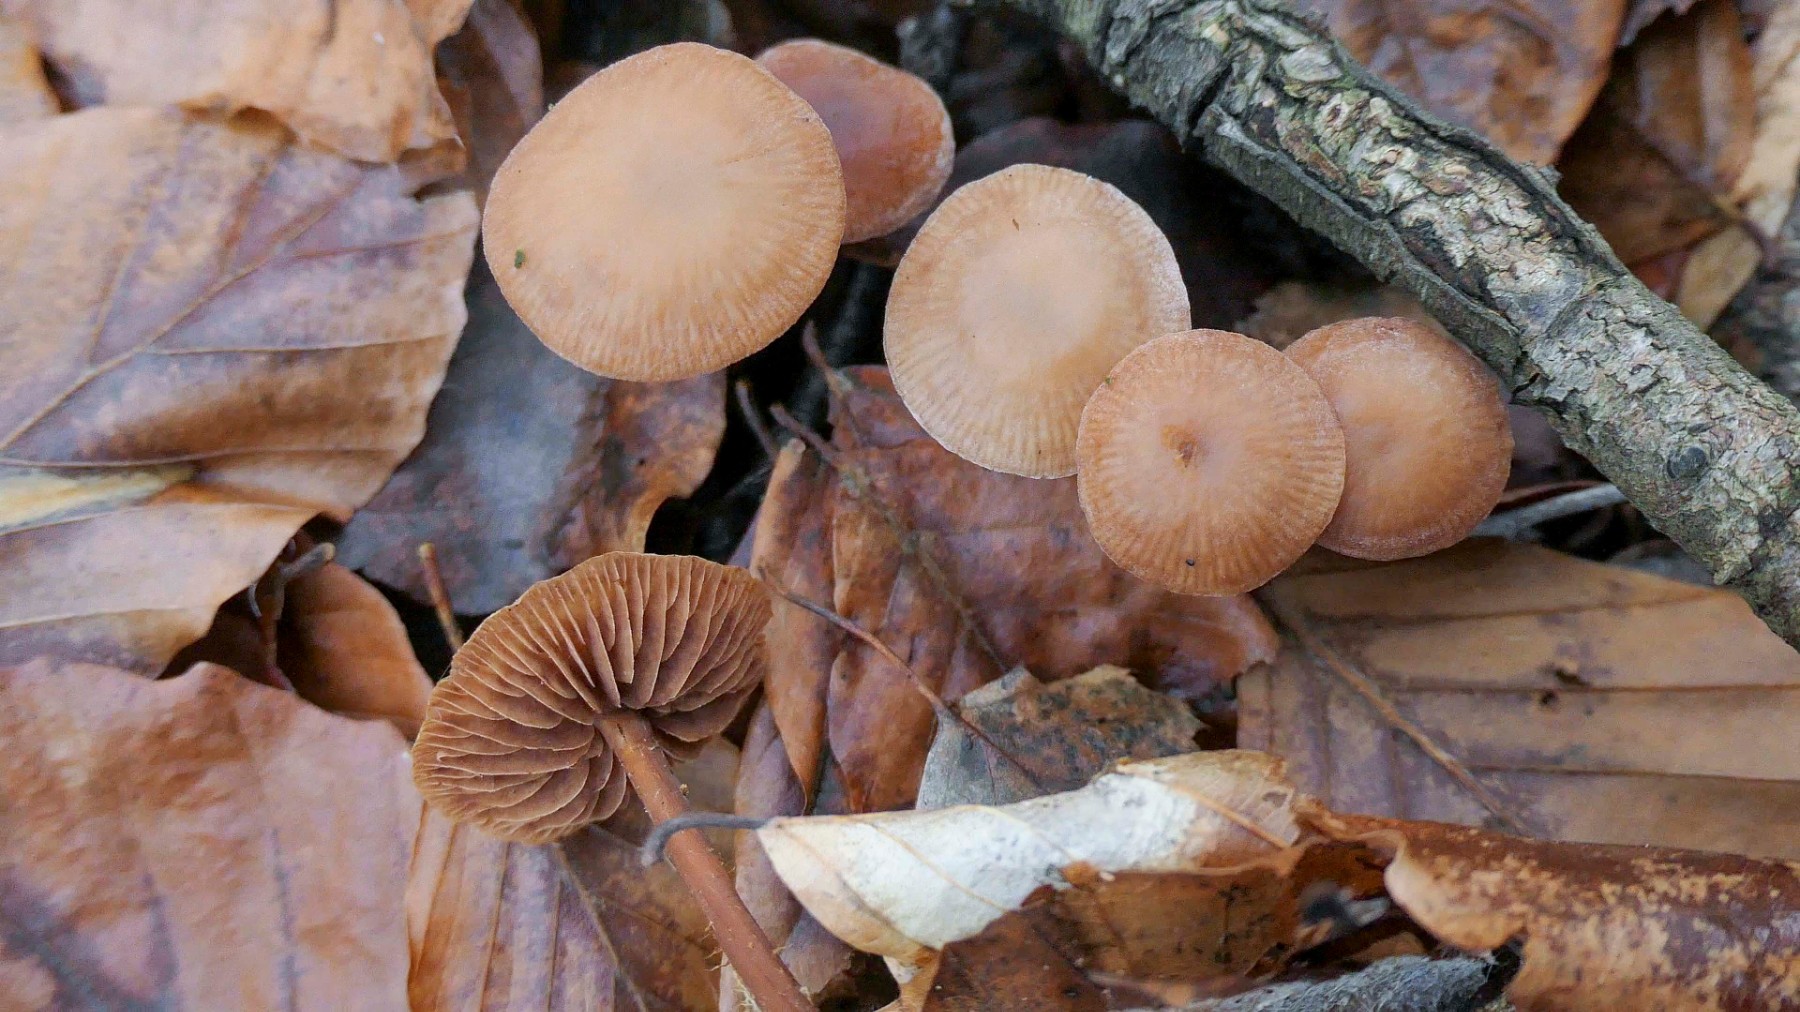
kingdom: Fungi
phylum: Basidiomycota
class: Agaricomycetes
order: Agaricales
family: Omphalotaceae
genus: Gymnopus
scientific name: Gymnopus fagiphilus
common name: bøgeløv-fladhat
